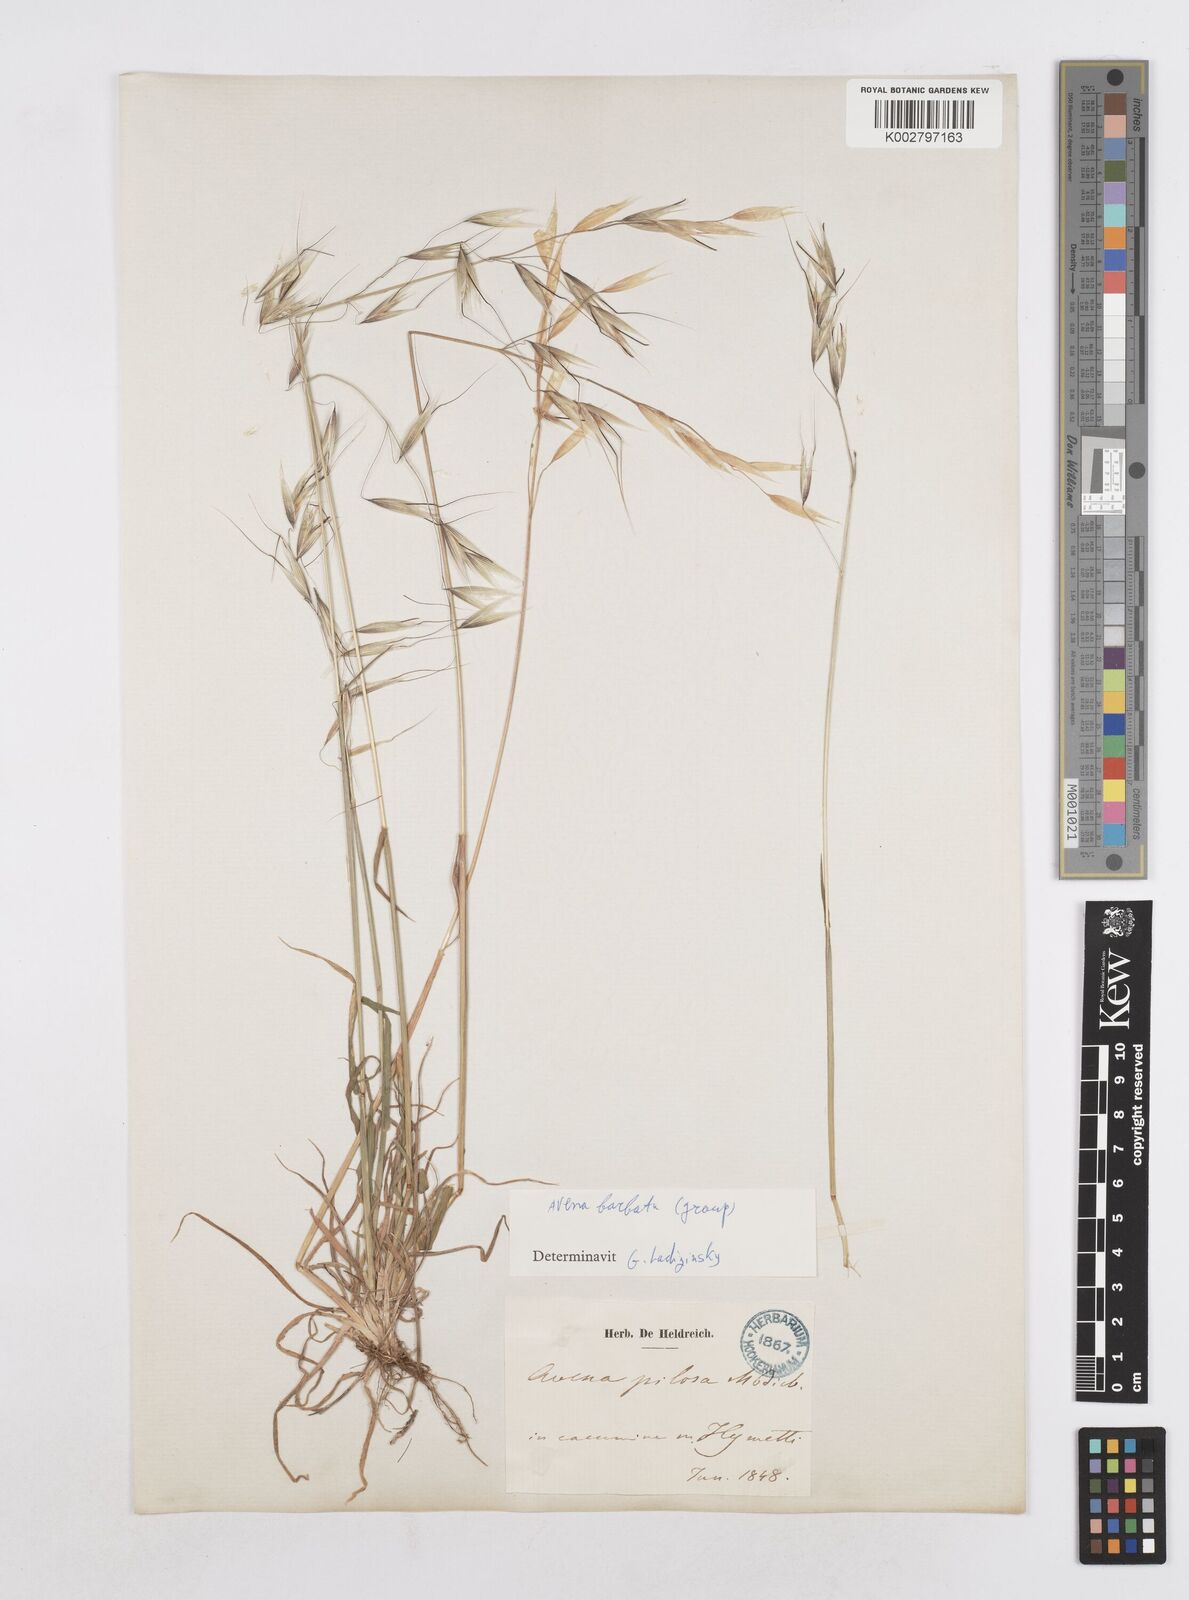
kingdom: Plantae
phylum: Tracheophyta
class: Liliopsida
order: Poales
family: Poaceae
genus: Avena
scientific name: Avena
